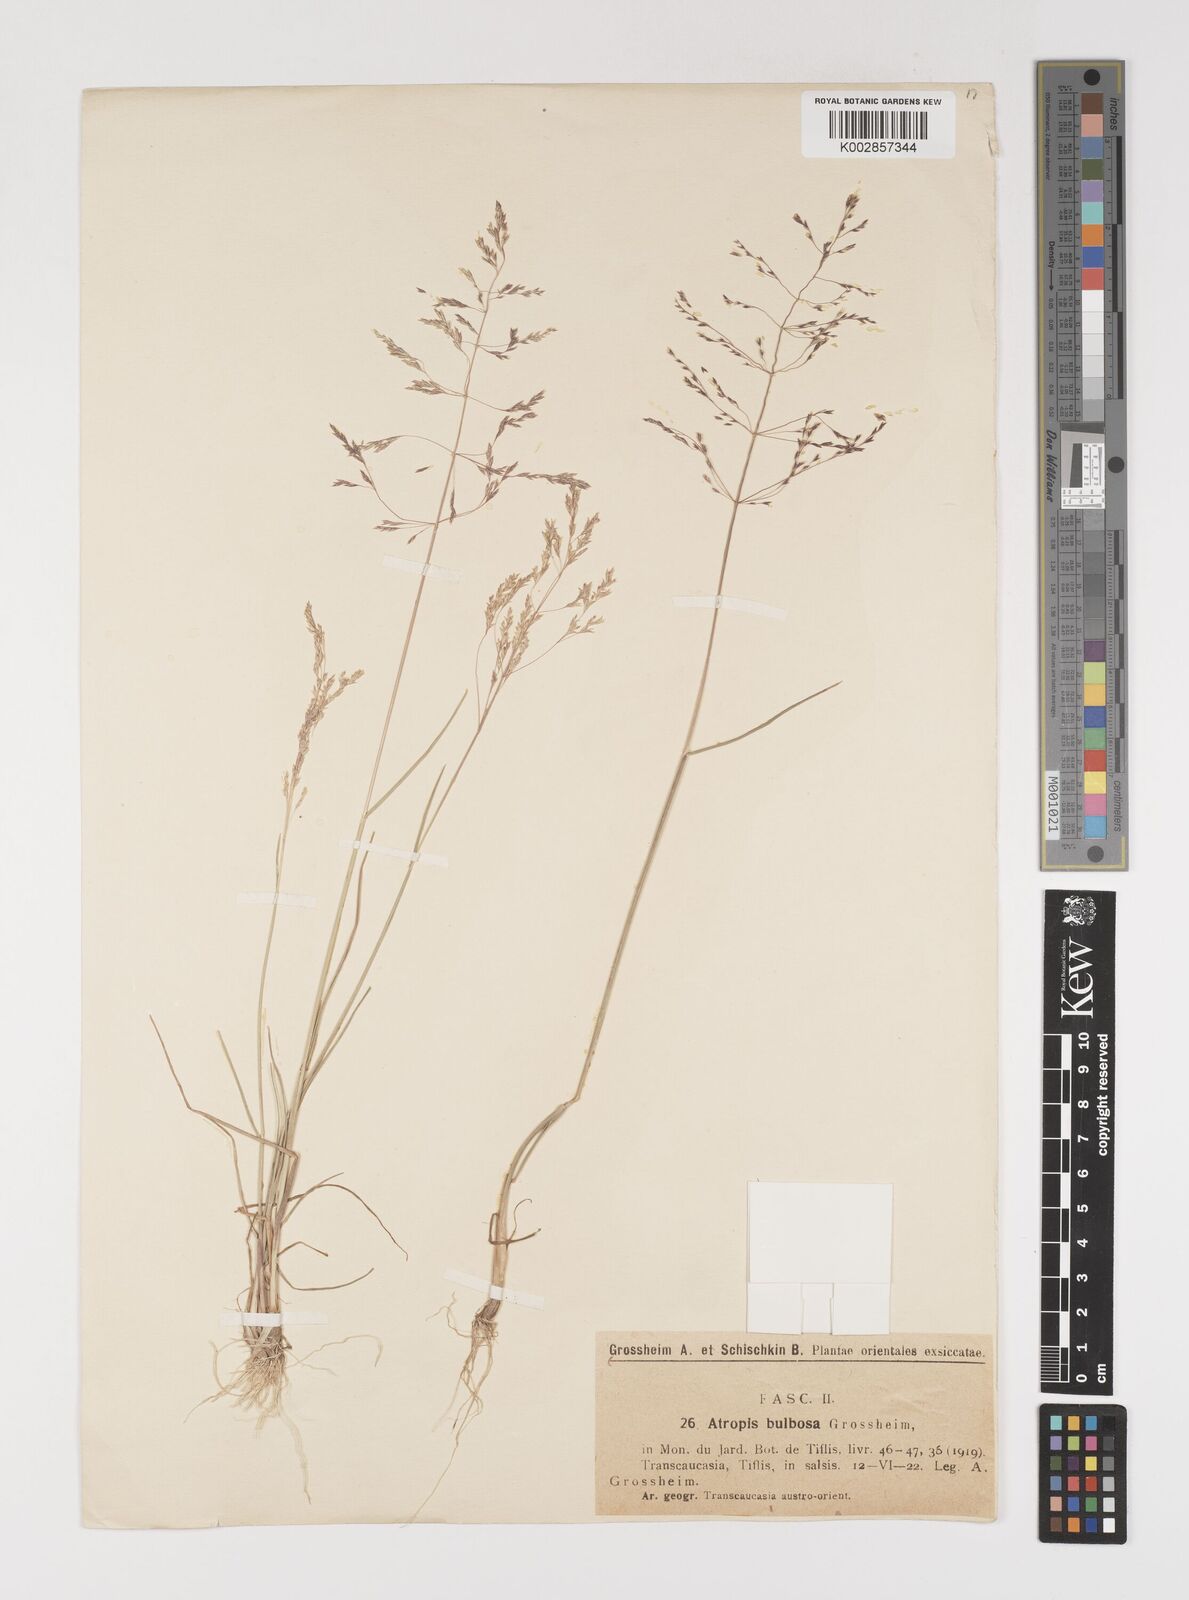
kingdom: Plantae
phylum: Tracheophyta
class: Liliopsida
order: Poales
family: Poaceae
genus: Puccinellia
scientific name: Puccinellia gigantea
